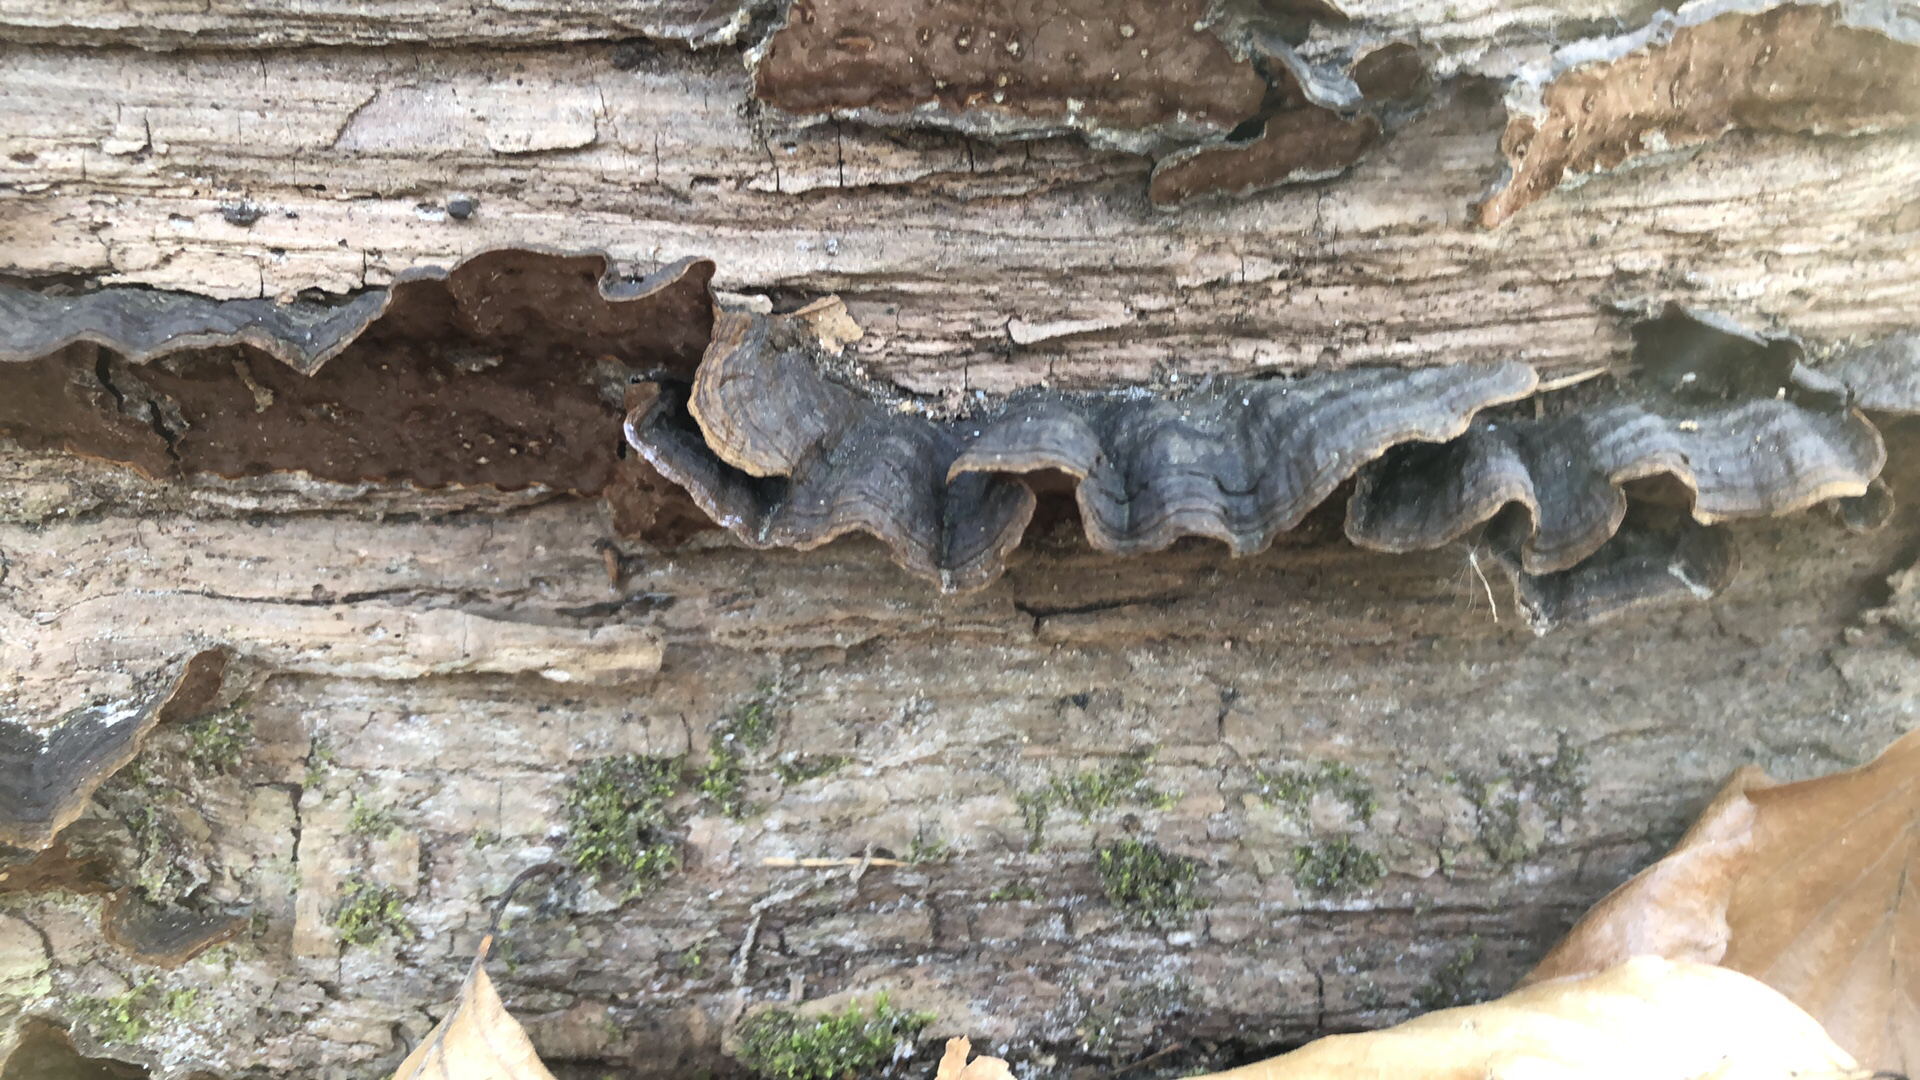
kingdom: Fungi
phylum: Basidiomycota
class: Agaricomycetes
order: Hymenochaetales
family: Hymenochaetaceae
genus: Hymenochaete
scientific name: Hymenochaete rubiginosa
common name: stiv ruslædersvamp
